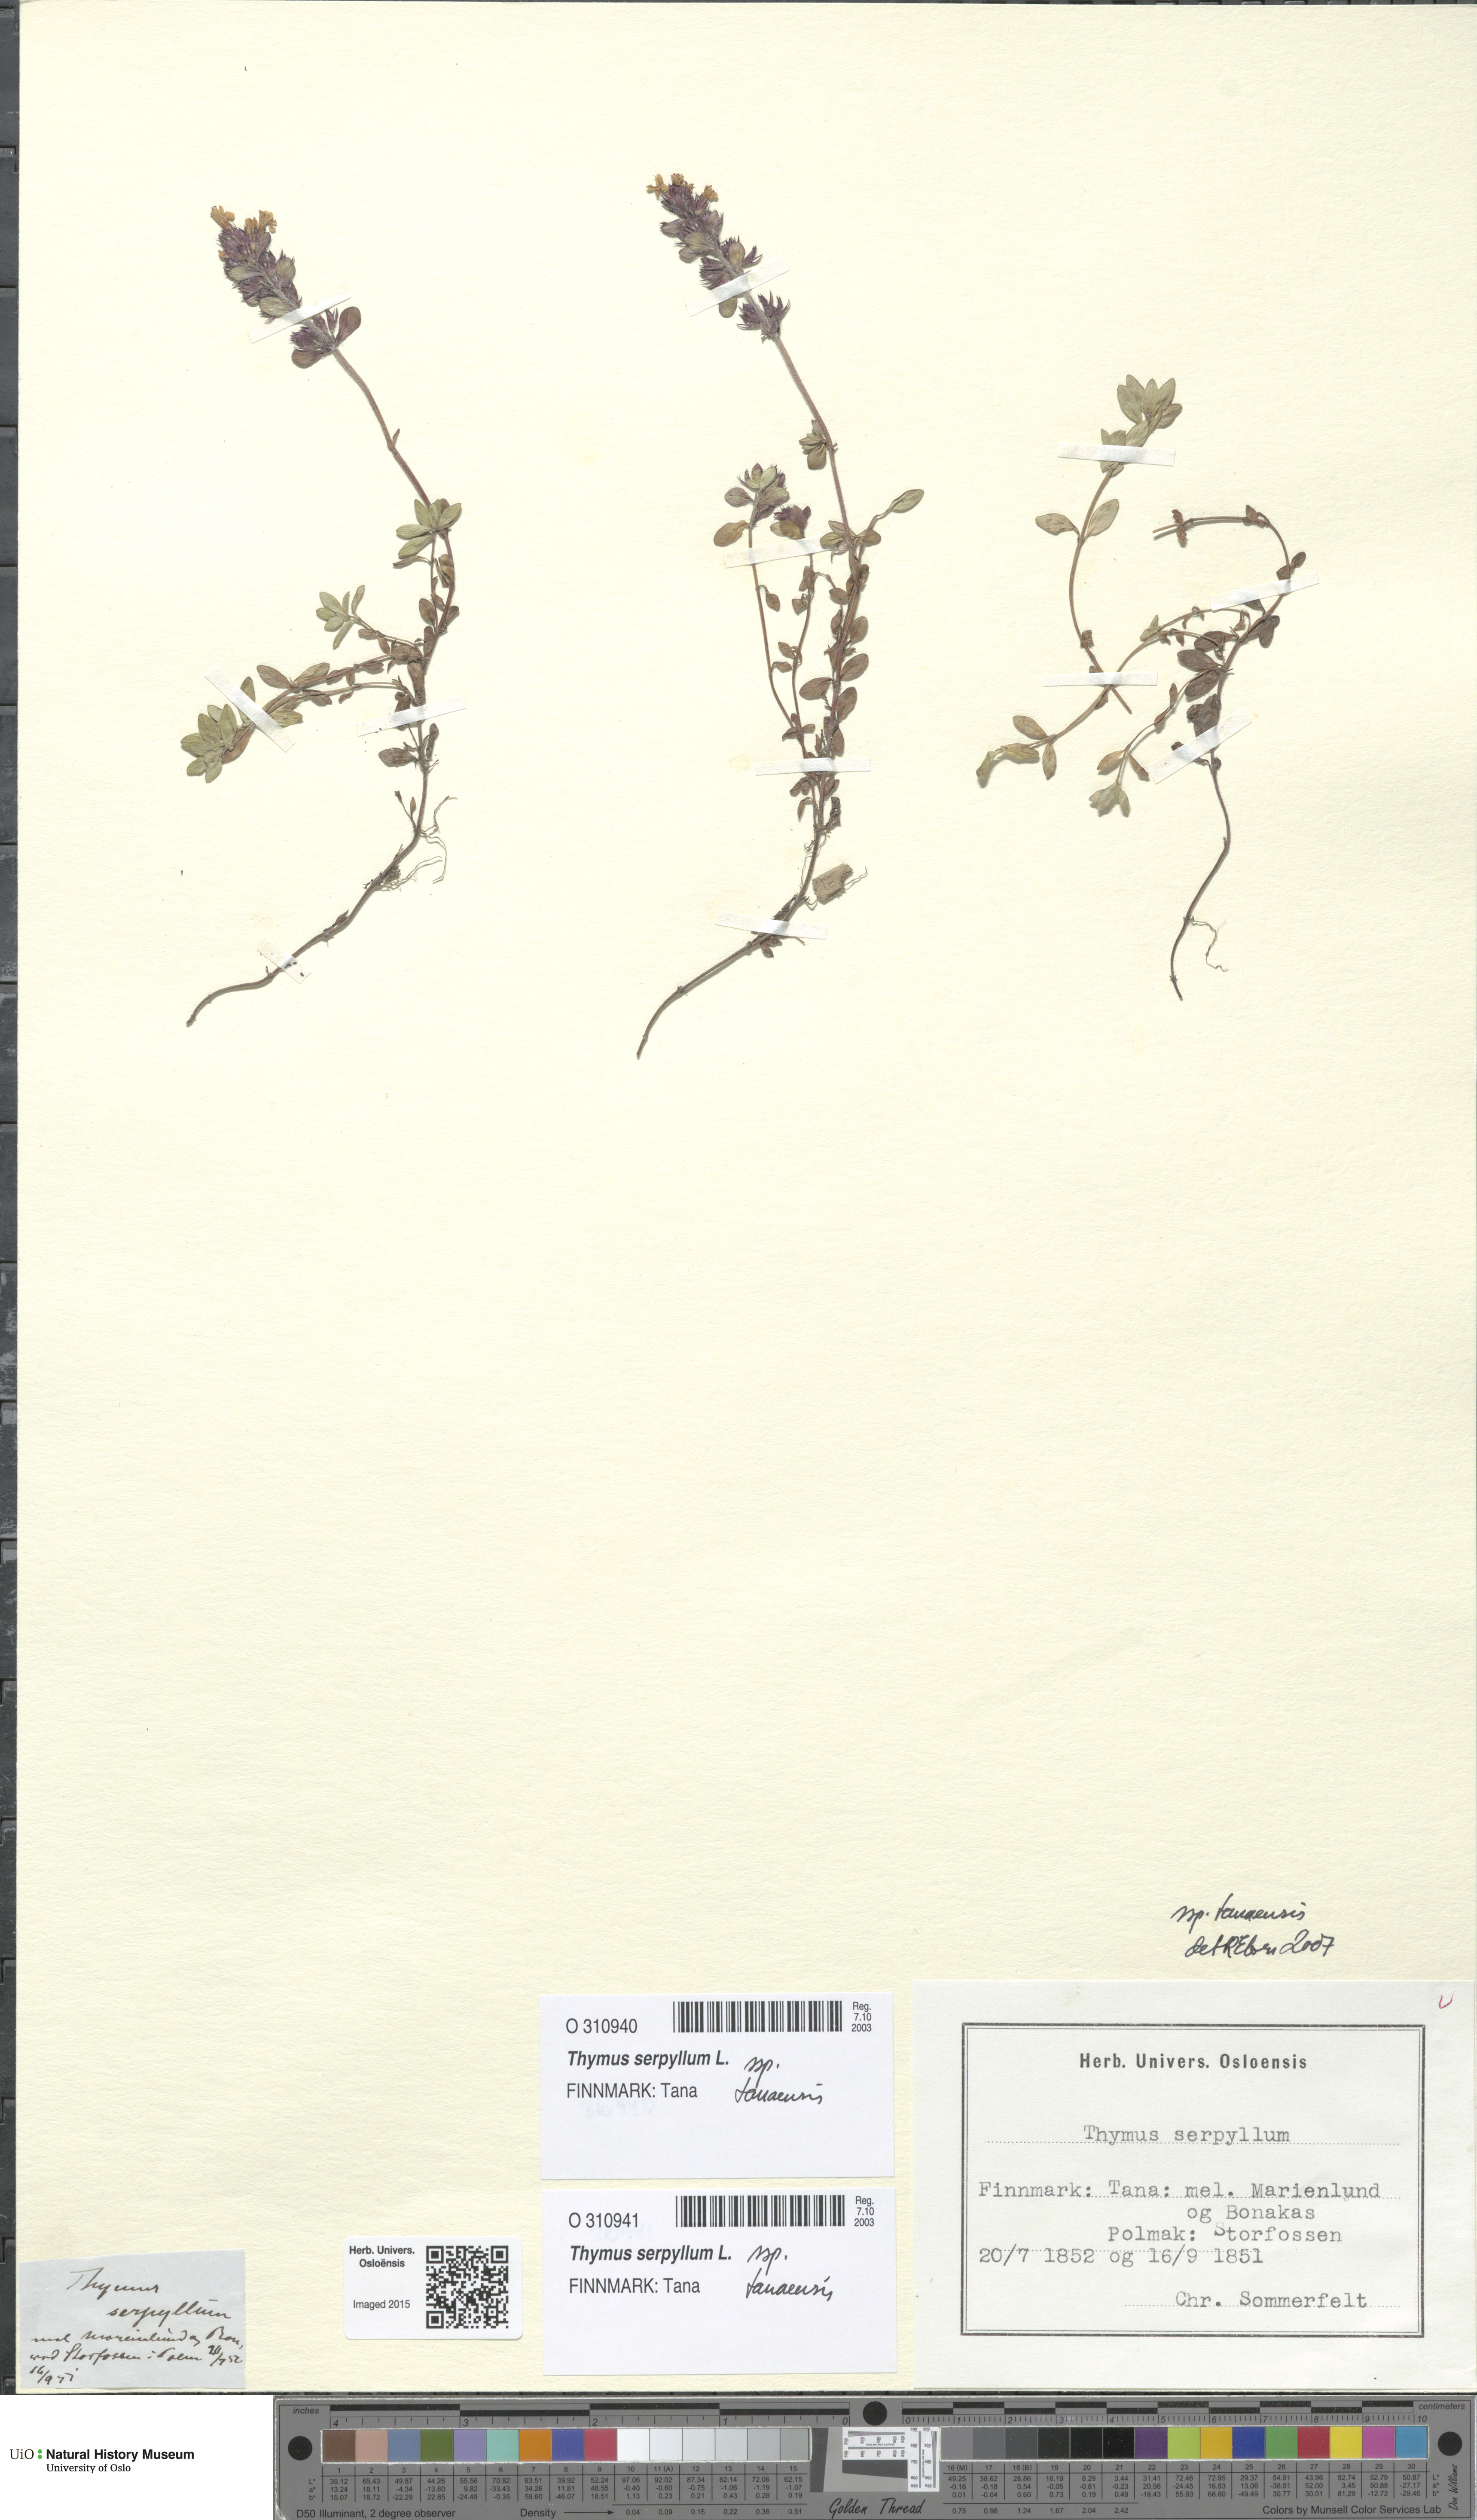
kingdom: Plantae
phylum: Tracheophyta
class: Magnoliopsida
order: Lamiales
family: Lamiaceae
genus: Thymus
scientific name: Thymus serpyllum
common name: Breckland thyme
